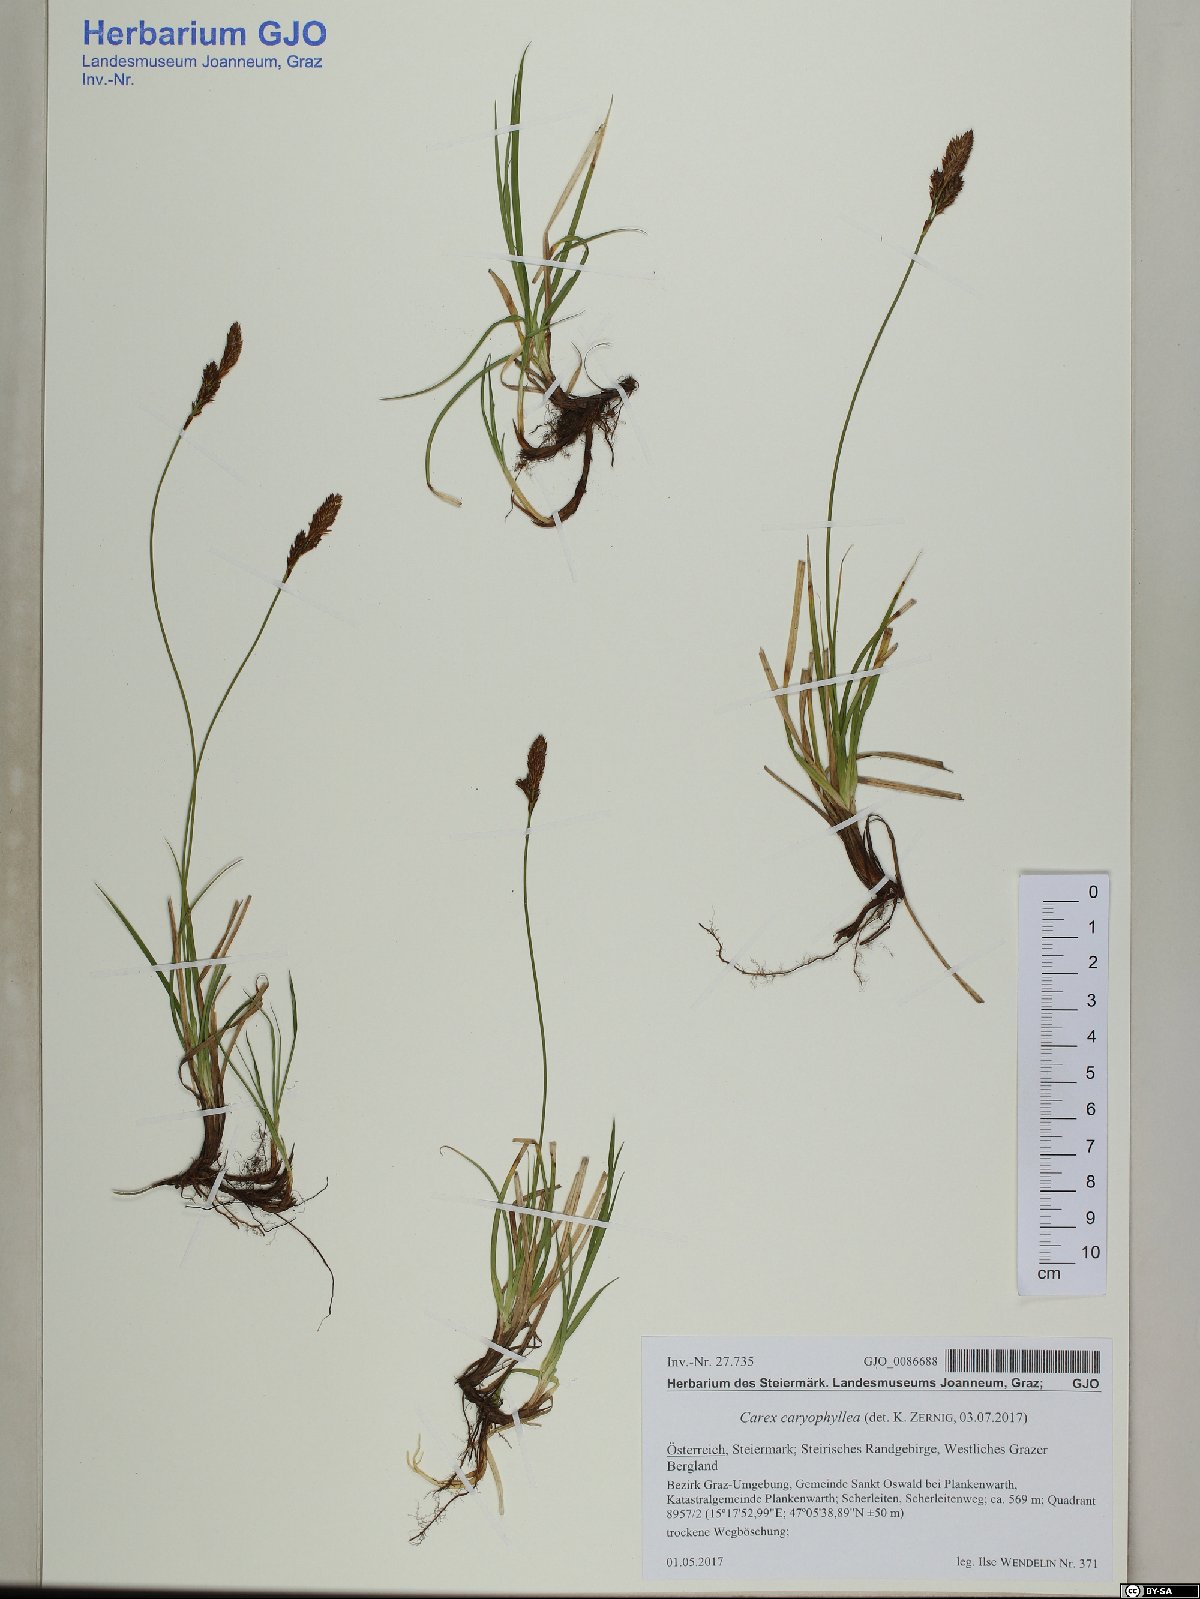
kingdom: Plantae
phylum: Tracheophyta
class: Liliopsida
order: Poales
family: Cyperaceae
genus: Carex
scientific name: Carex caryophyllea
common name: Spring sedge
